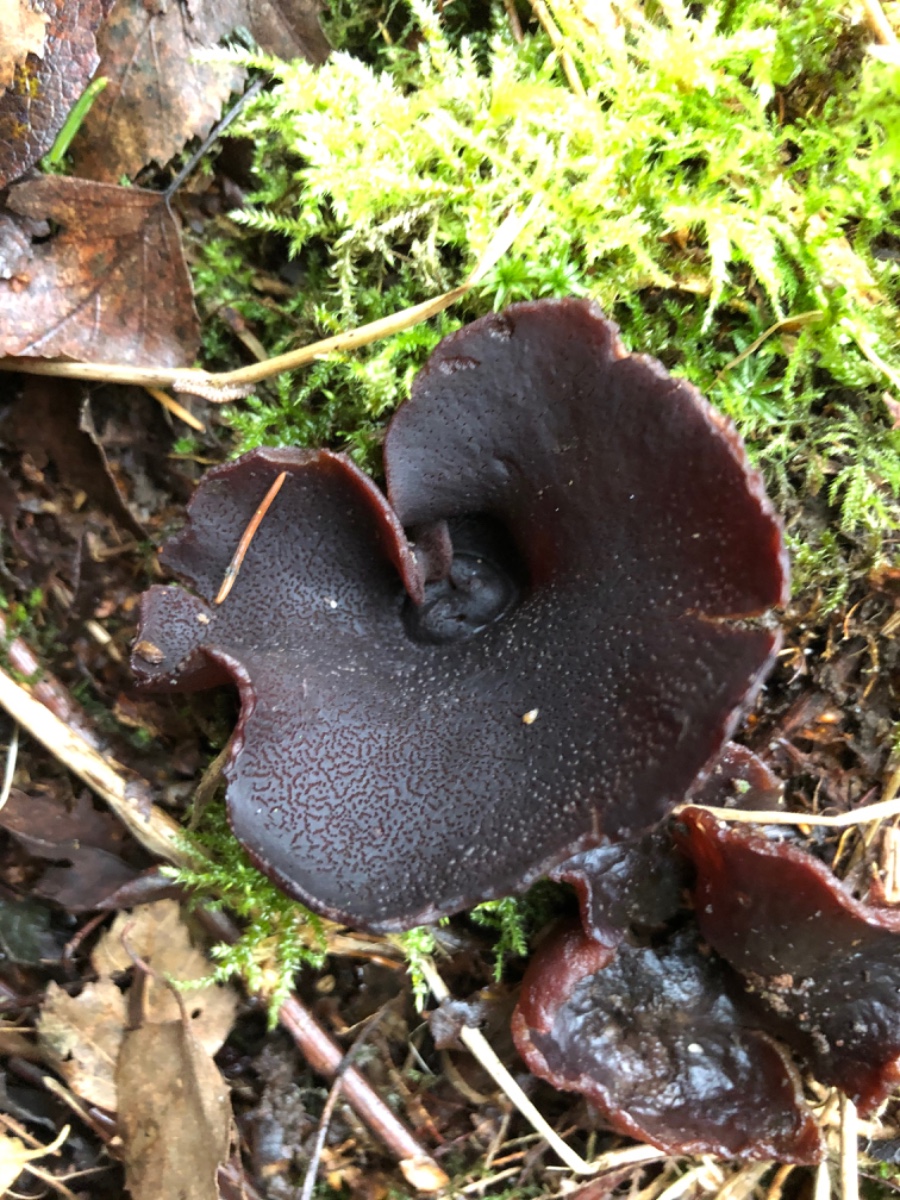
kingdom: Fungi
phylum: Ascomycota
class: Pezizomycetes
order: Pezizales
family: Pezizaceae
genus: Legaliana
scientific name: Legaliana badia
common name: leverbrun bægersvamp
